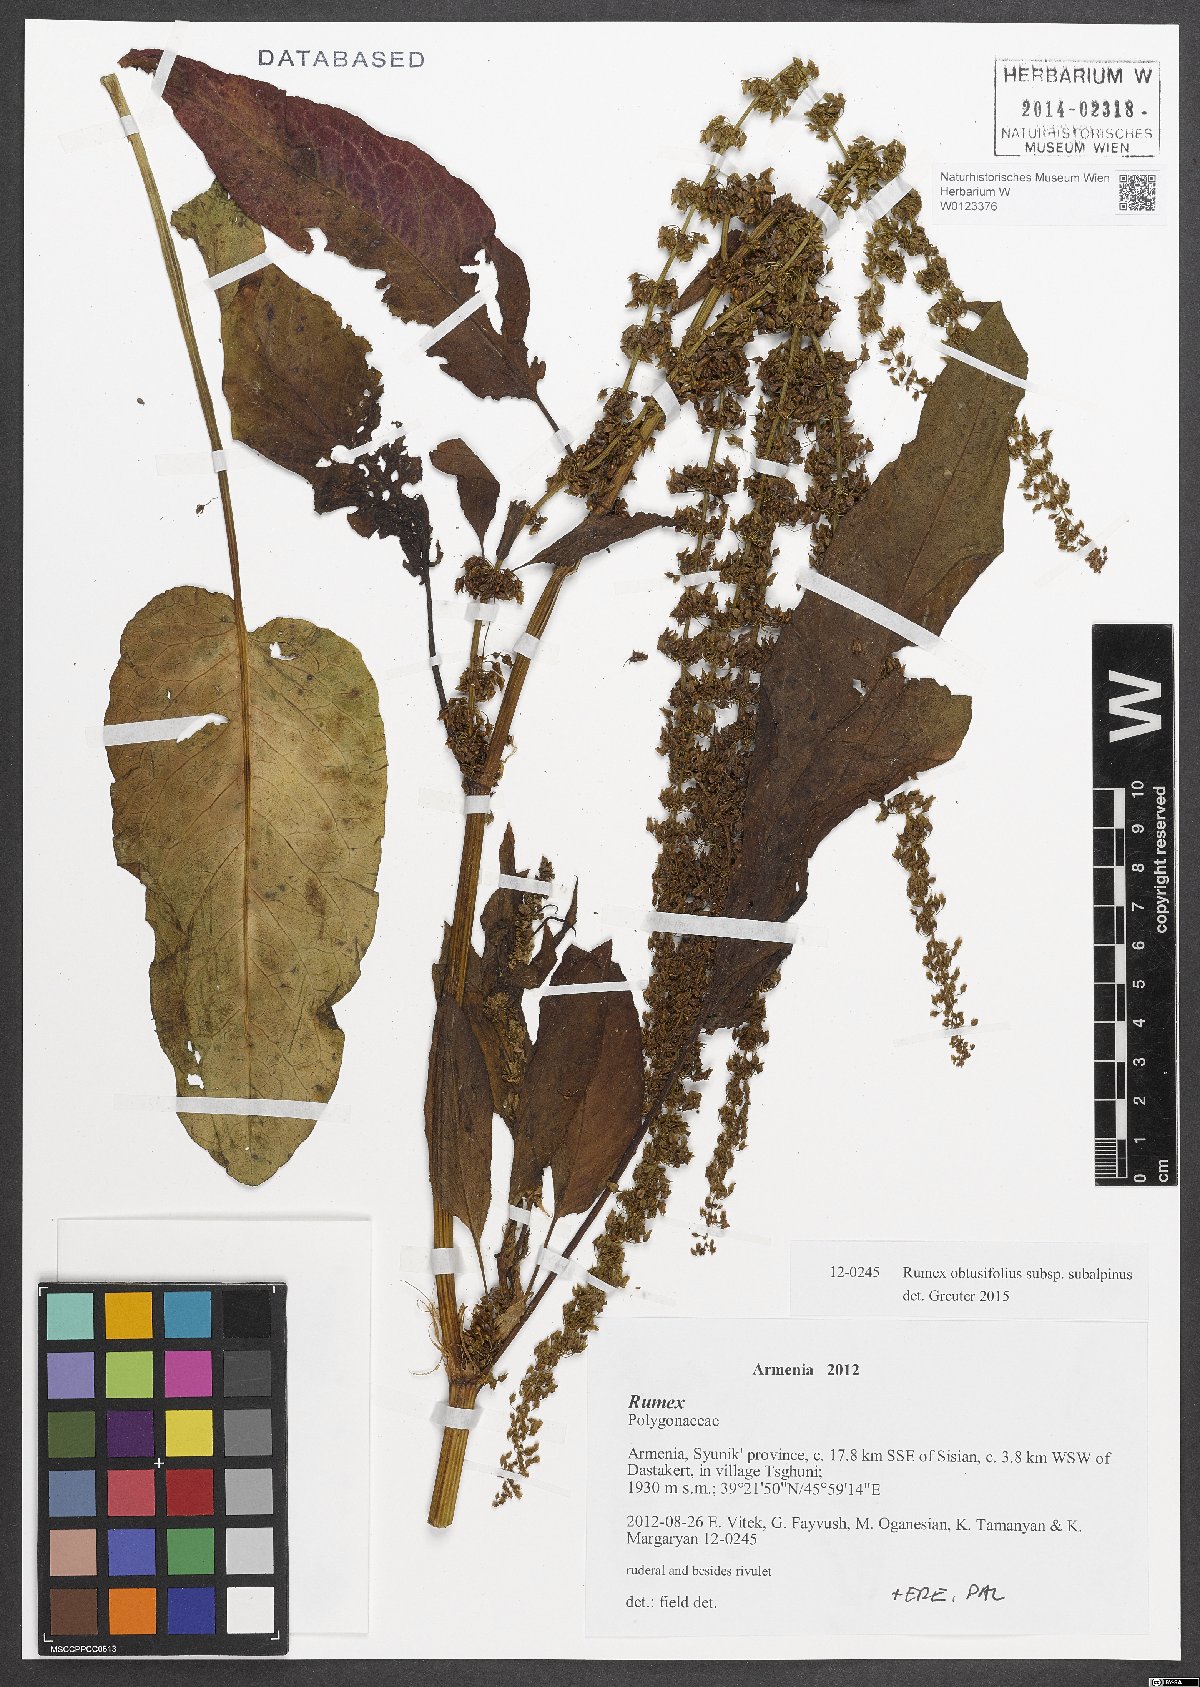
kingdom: Plantae
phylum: Tracheophyta
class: Magnoliopsida
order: Caryophyllales
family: Polygonaceae
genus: Rumex
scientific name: Rumex obtusifolius
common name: Bitter dock
